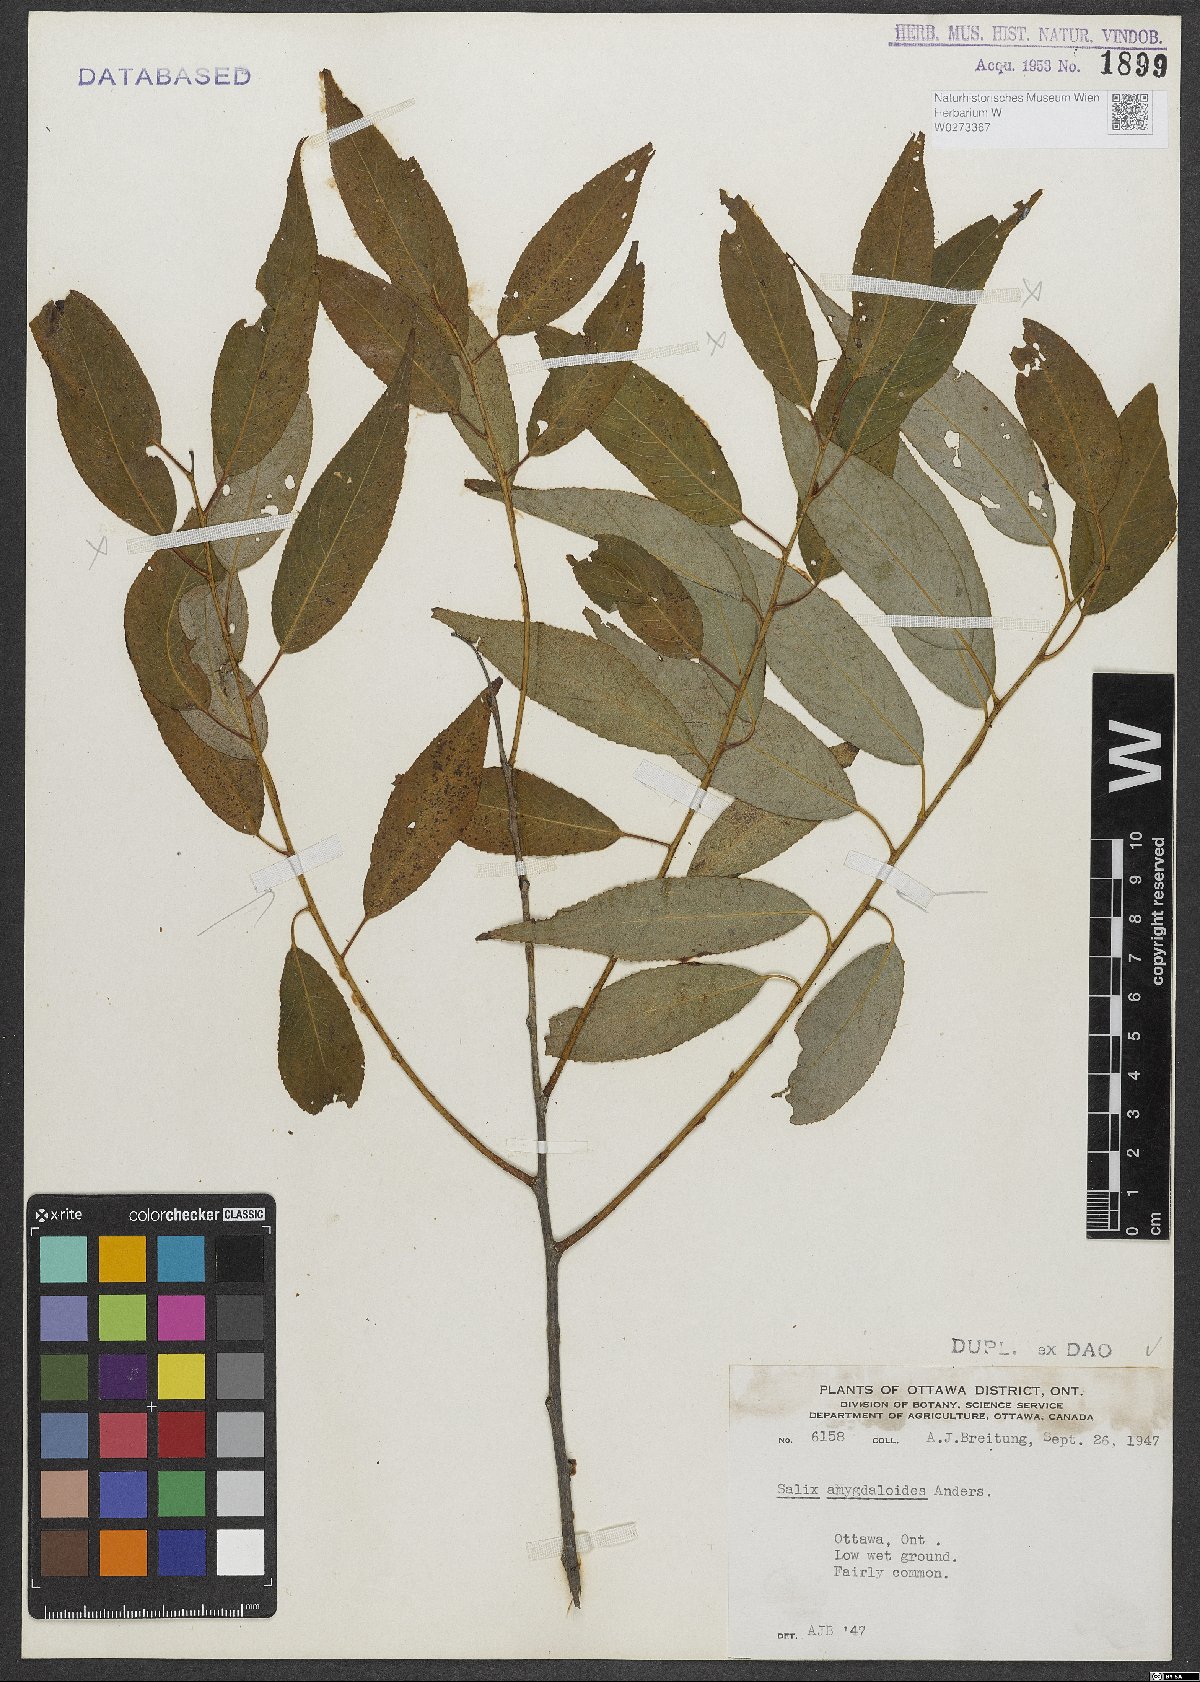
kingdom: Plantae
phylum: Tracheophyta
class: Magnoliopsida
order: Malpighiales
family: Salicaceae
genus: Salix
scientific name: Salix amygdaloides
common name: Peach leaf willow
